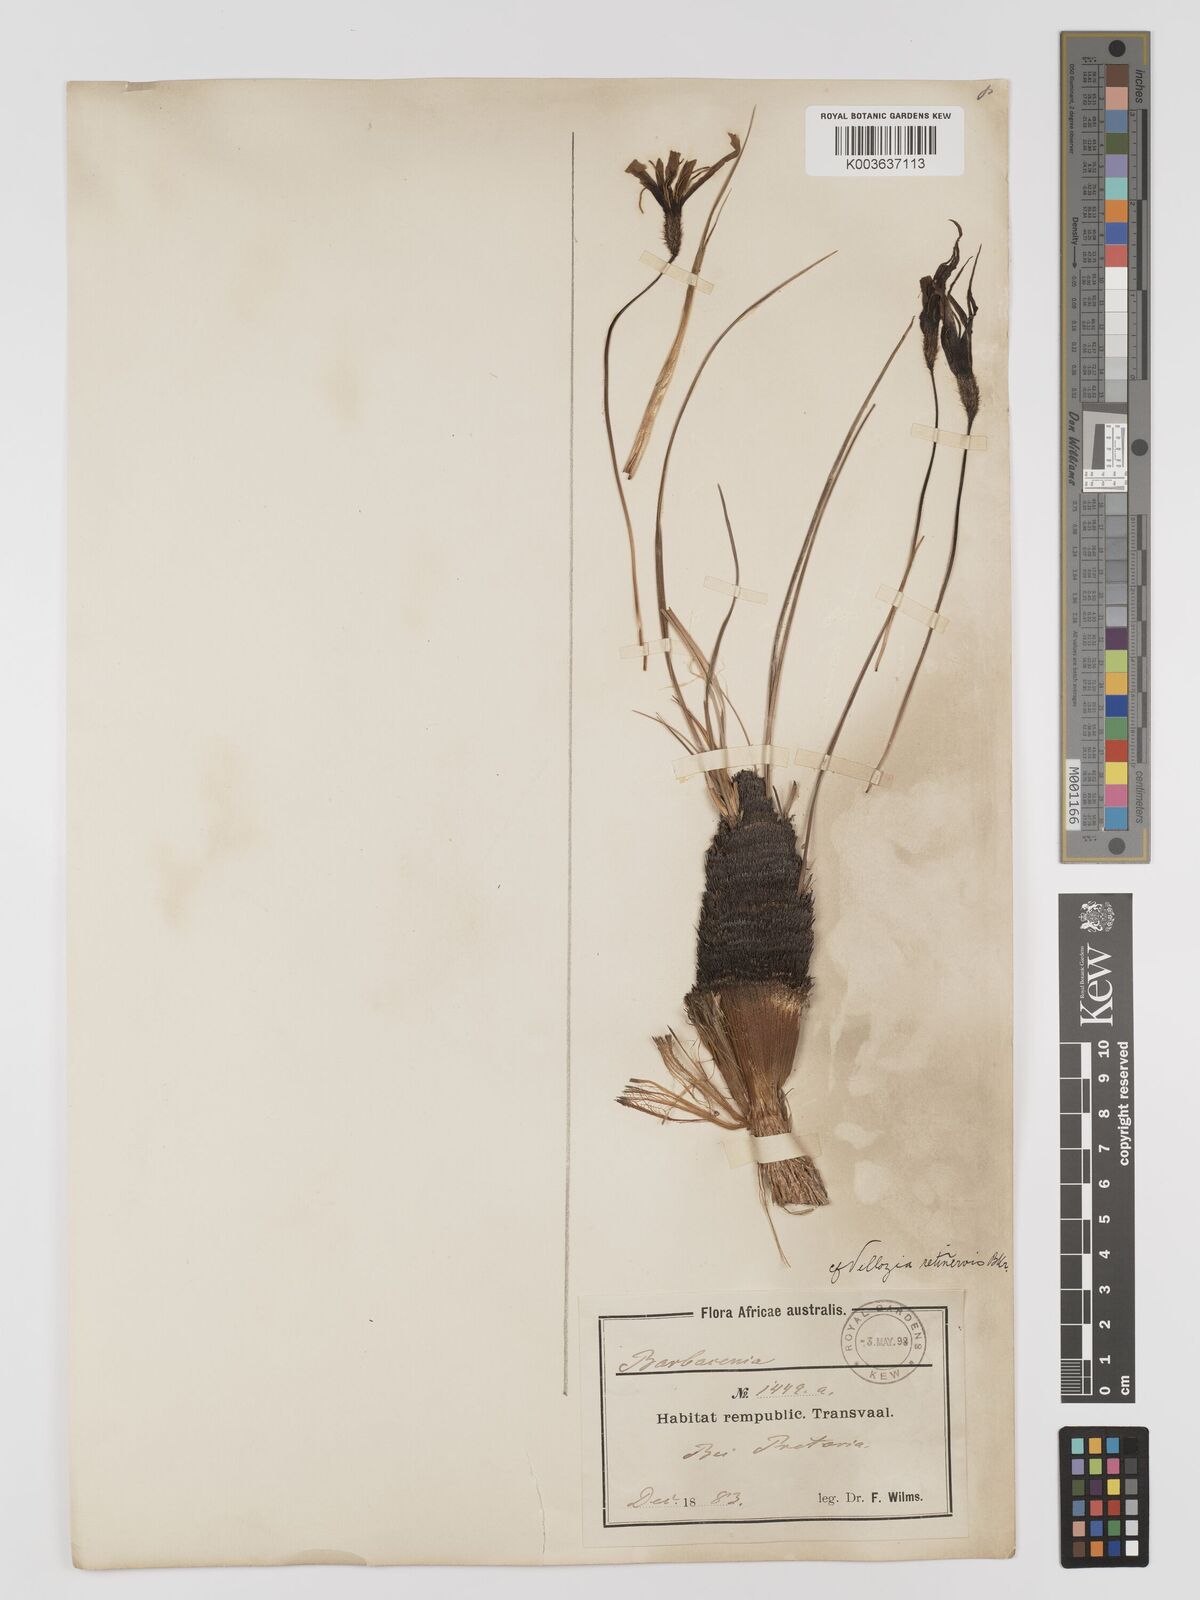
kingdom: Plantae
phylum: Tracheophyta
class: Liliopsida
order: Pandanales
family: Velloziaceae
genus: Xerophyta
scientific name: Xerophyta retinervis
